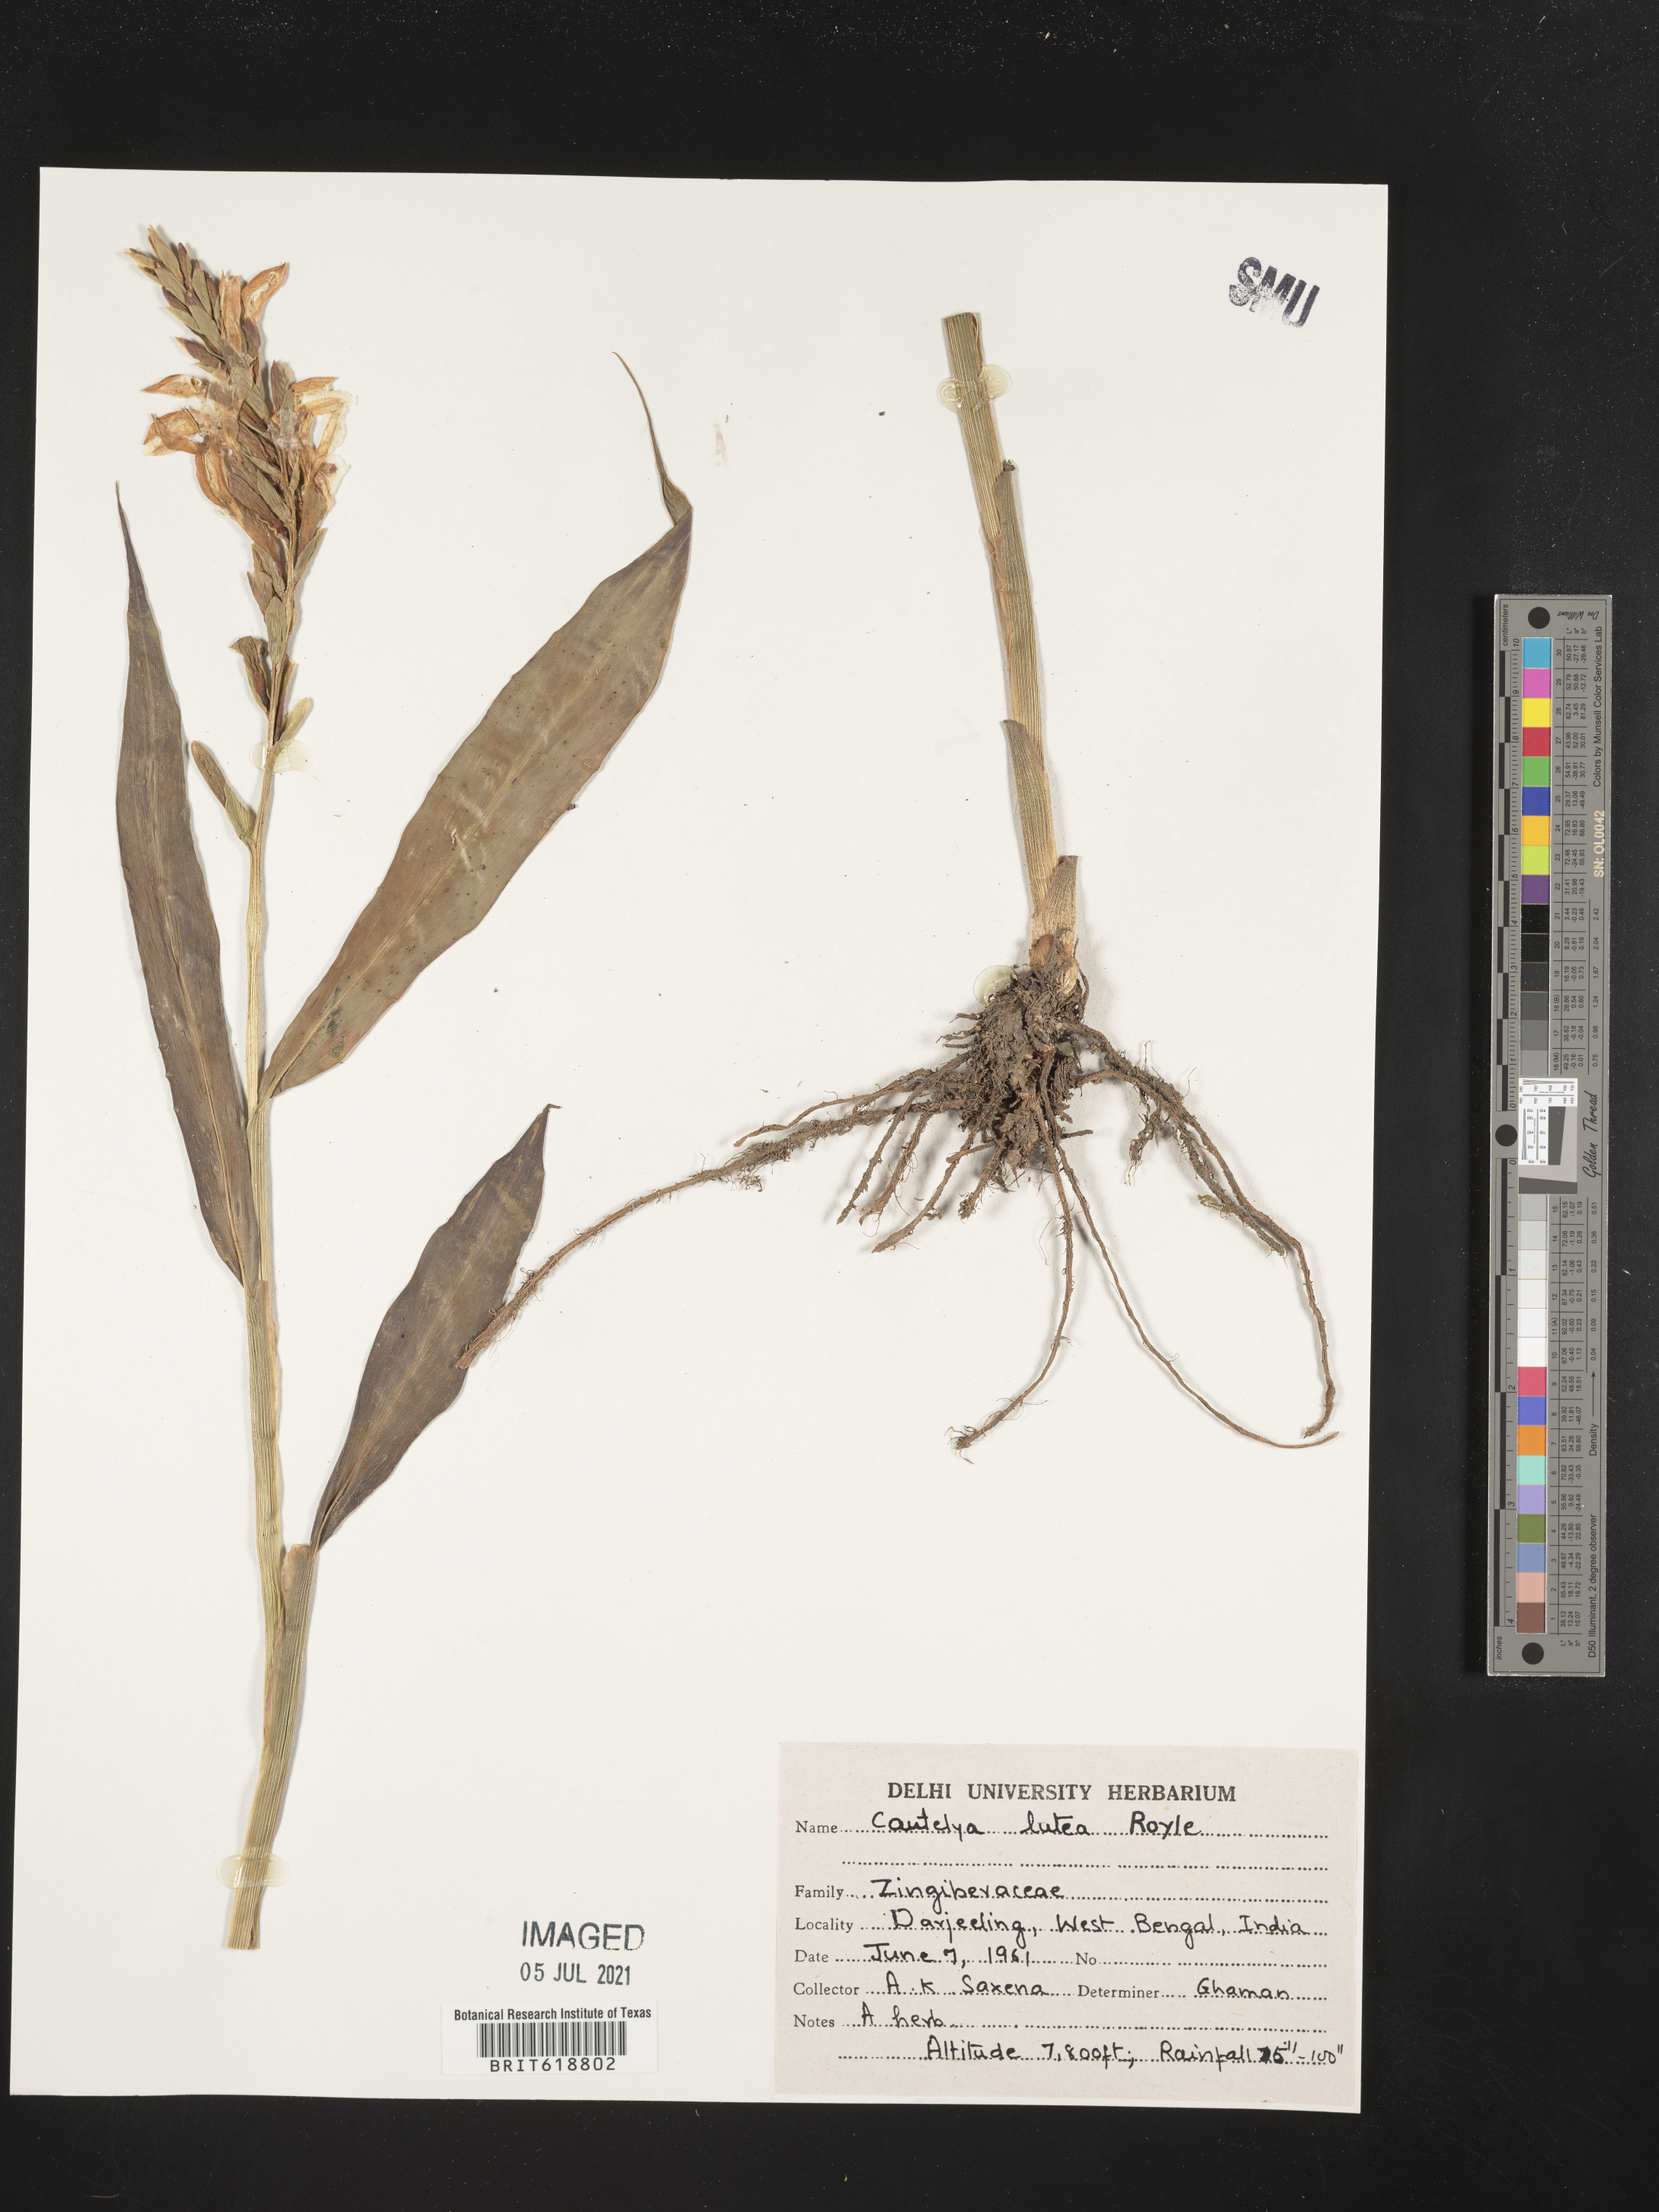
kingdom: Plantae
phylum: Tracheophyta
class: Liliopsida
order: Zingiberales
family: Zingiberaceae
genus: Cautleya
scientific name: Cautleya gracilis
